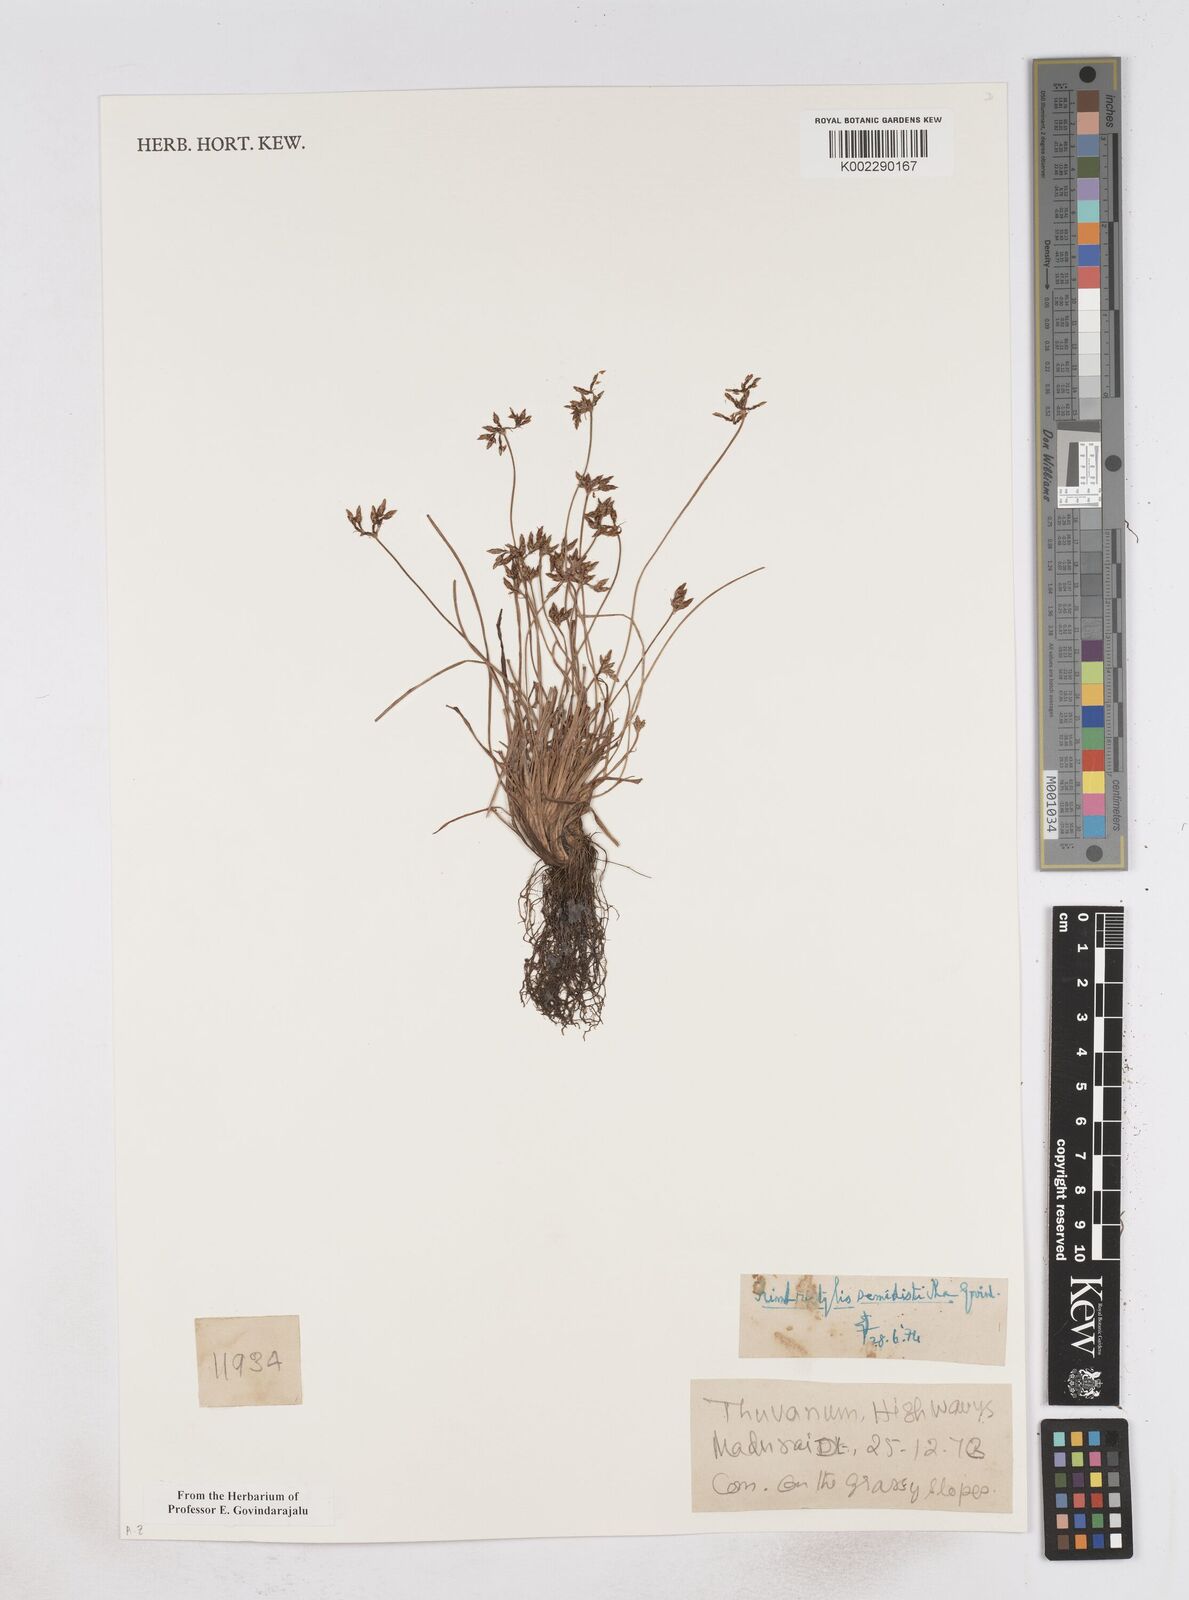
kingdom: Plantae
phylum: Tracheophyta
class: Liliopsida
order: Poales
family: Cyperaceae
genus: Fimbristylis
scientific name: Fimbristylis semidisticha
